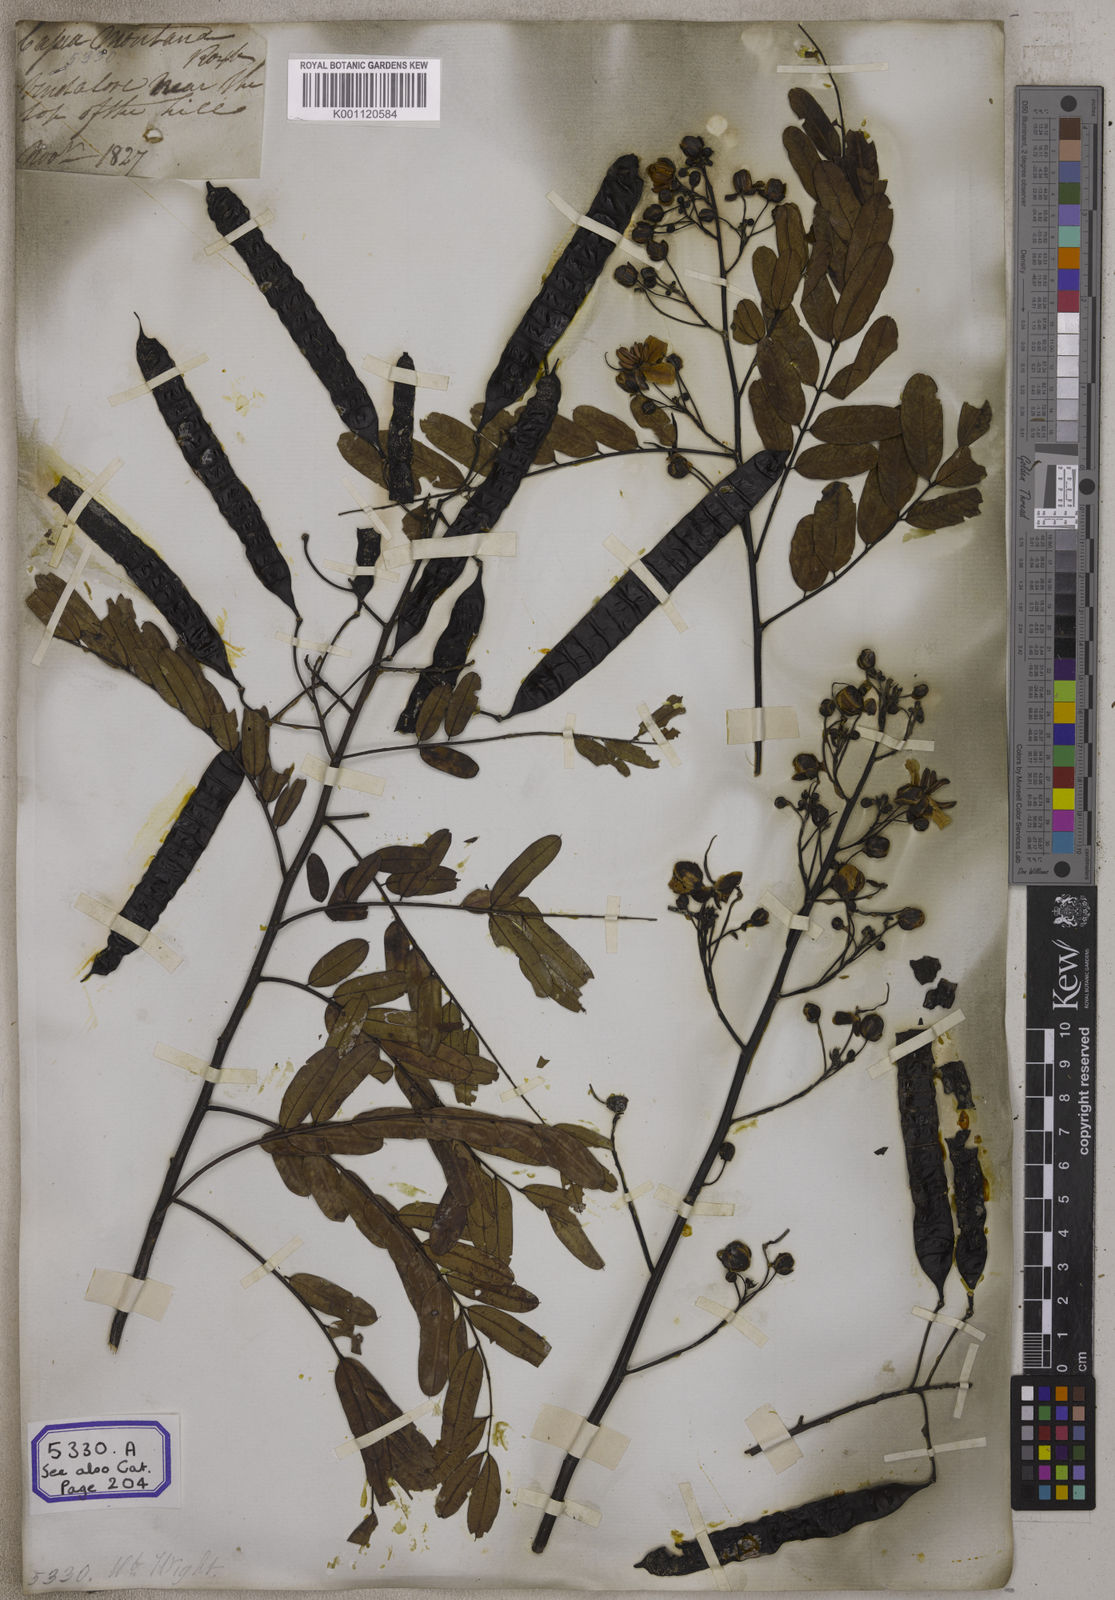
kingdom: Plantae
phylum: Tracheophyta
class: Magnoliopsida
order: Fabales
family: Fabaceae
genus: Senna
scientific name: Senna montana
